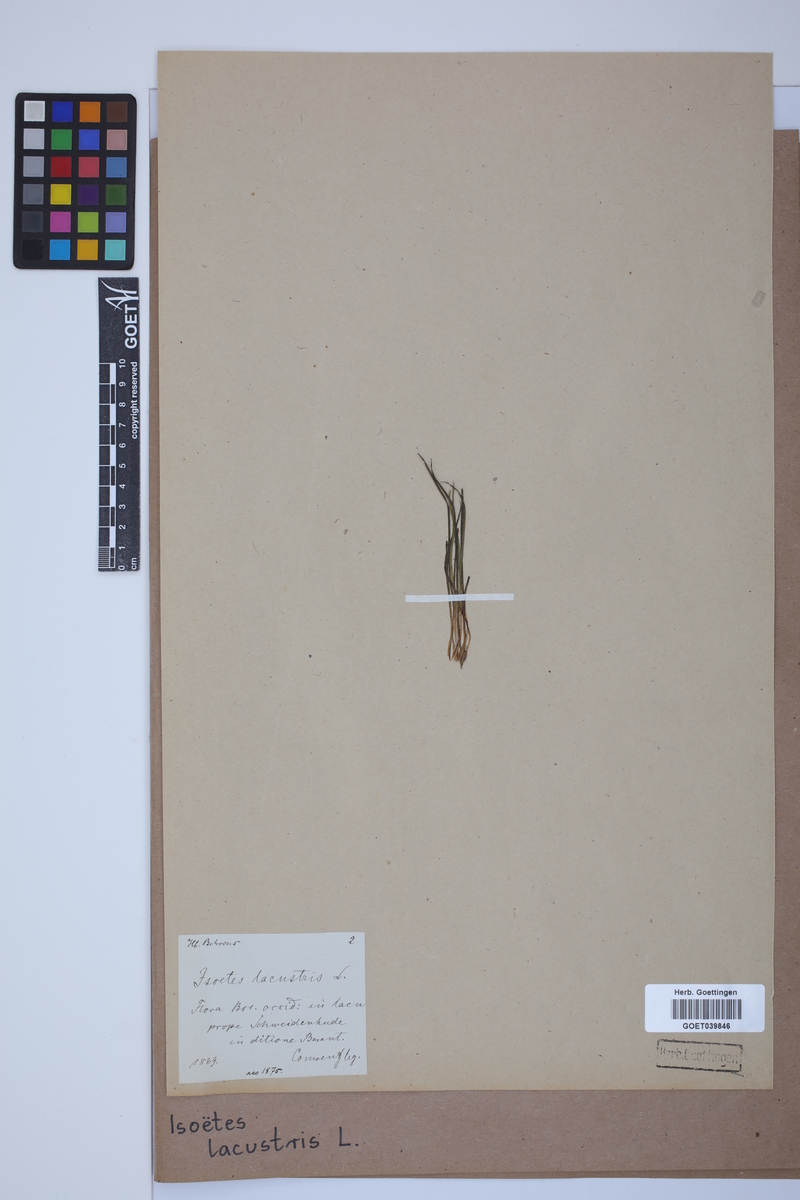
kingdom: Plantae
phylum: Tracheophyta
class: Lycopodiopsida
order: Isoetales
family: Isoetaceae
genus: Isoetes
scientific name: Isoetes lacustris
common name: Common quillwort
